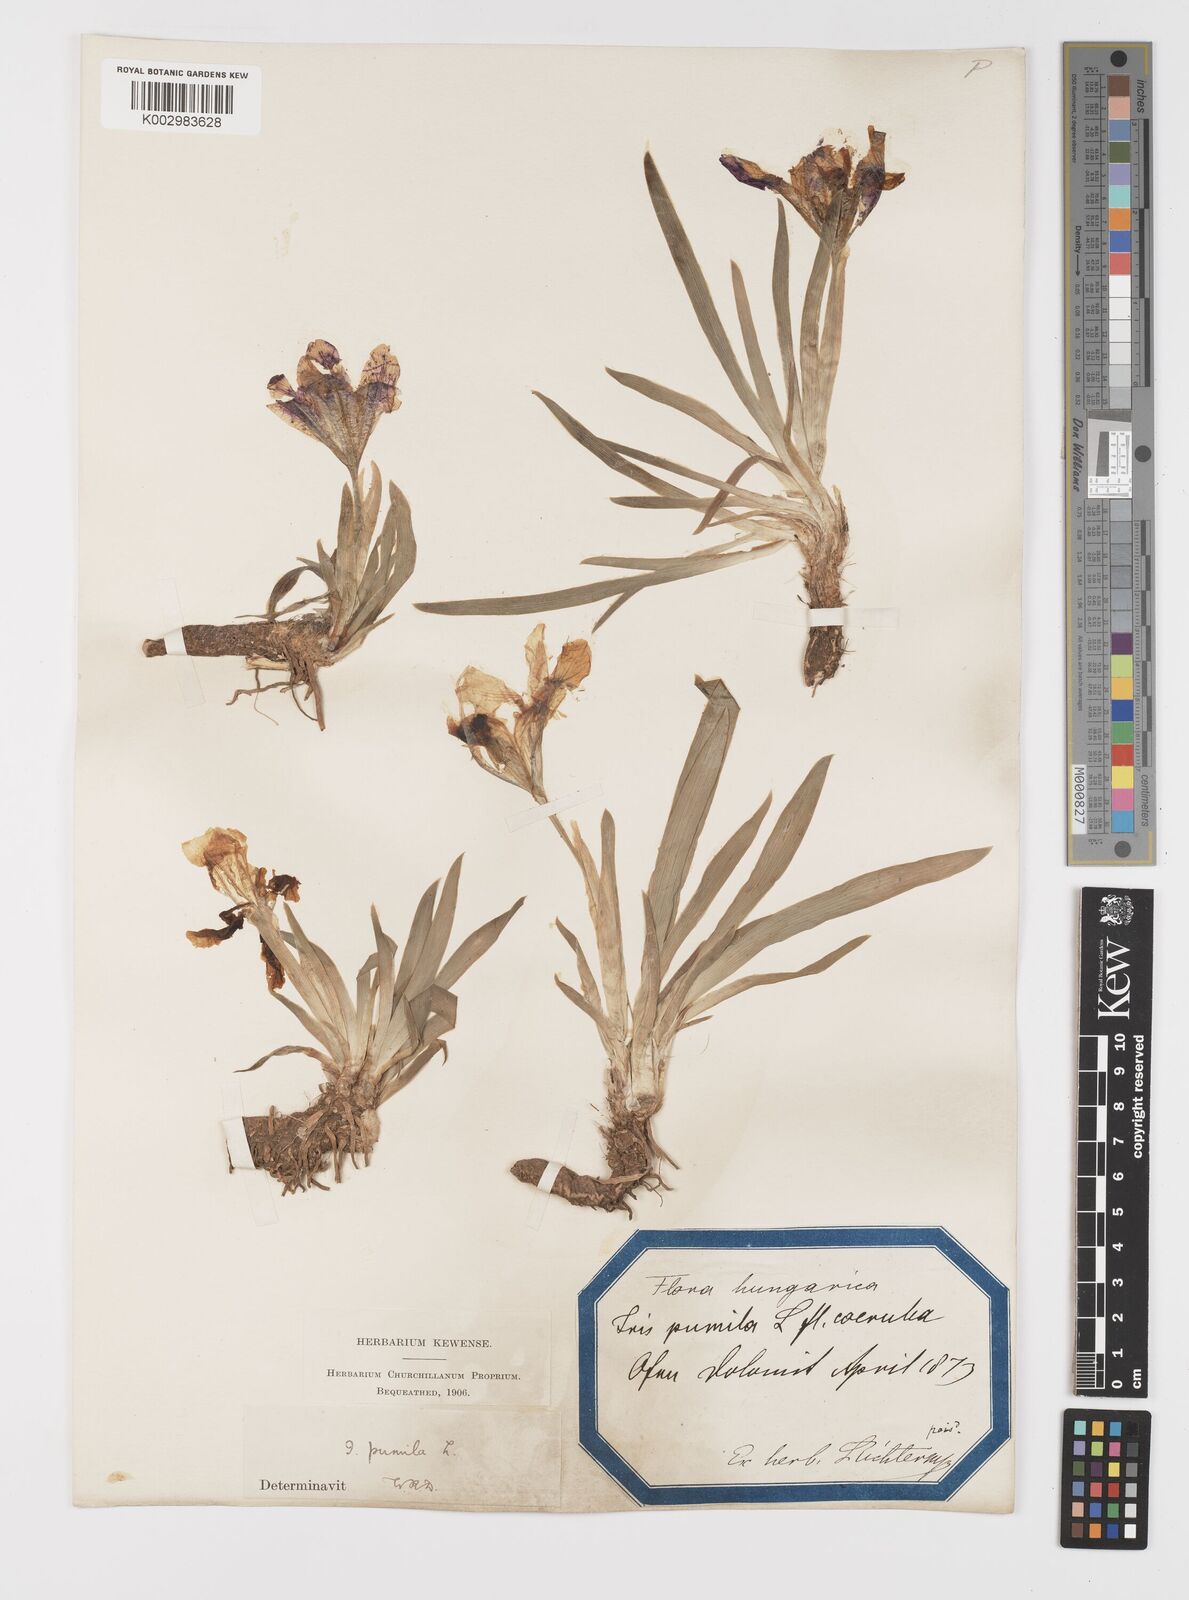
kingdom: Plantae
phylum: Tracheophyta
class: Liliopsida
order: Asparagales
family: Iridaceae
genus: Iris
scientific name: Iris pumila
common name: Dwarf iris
